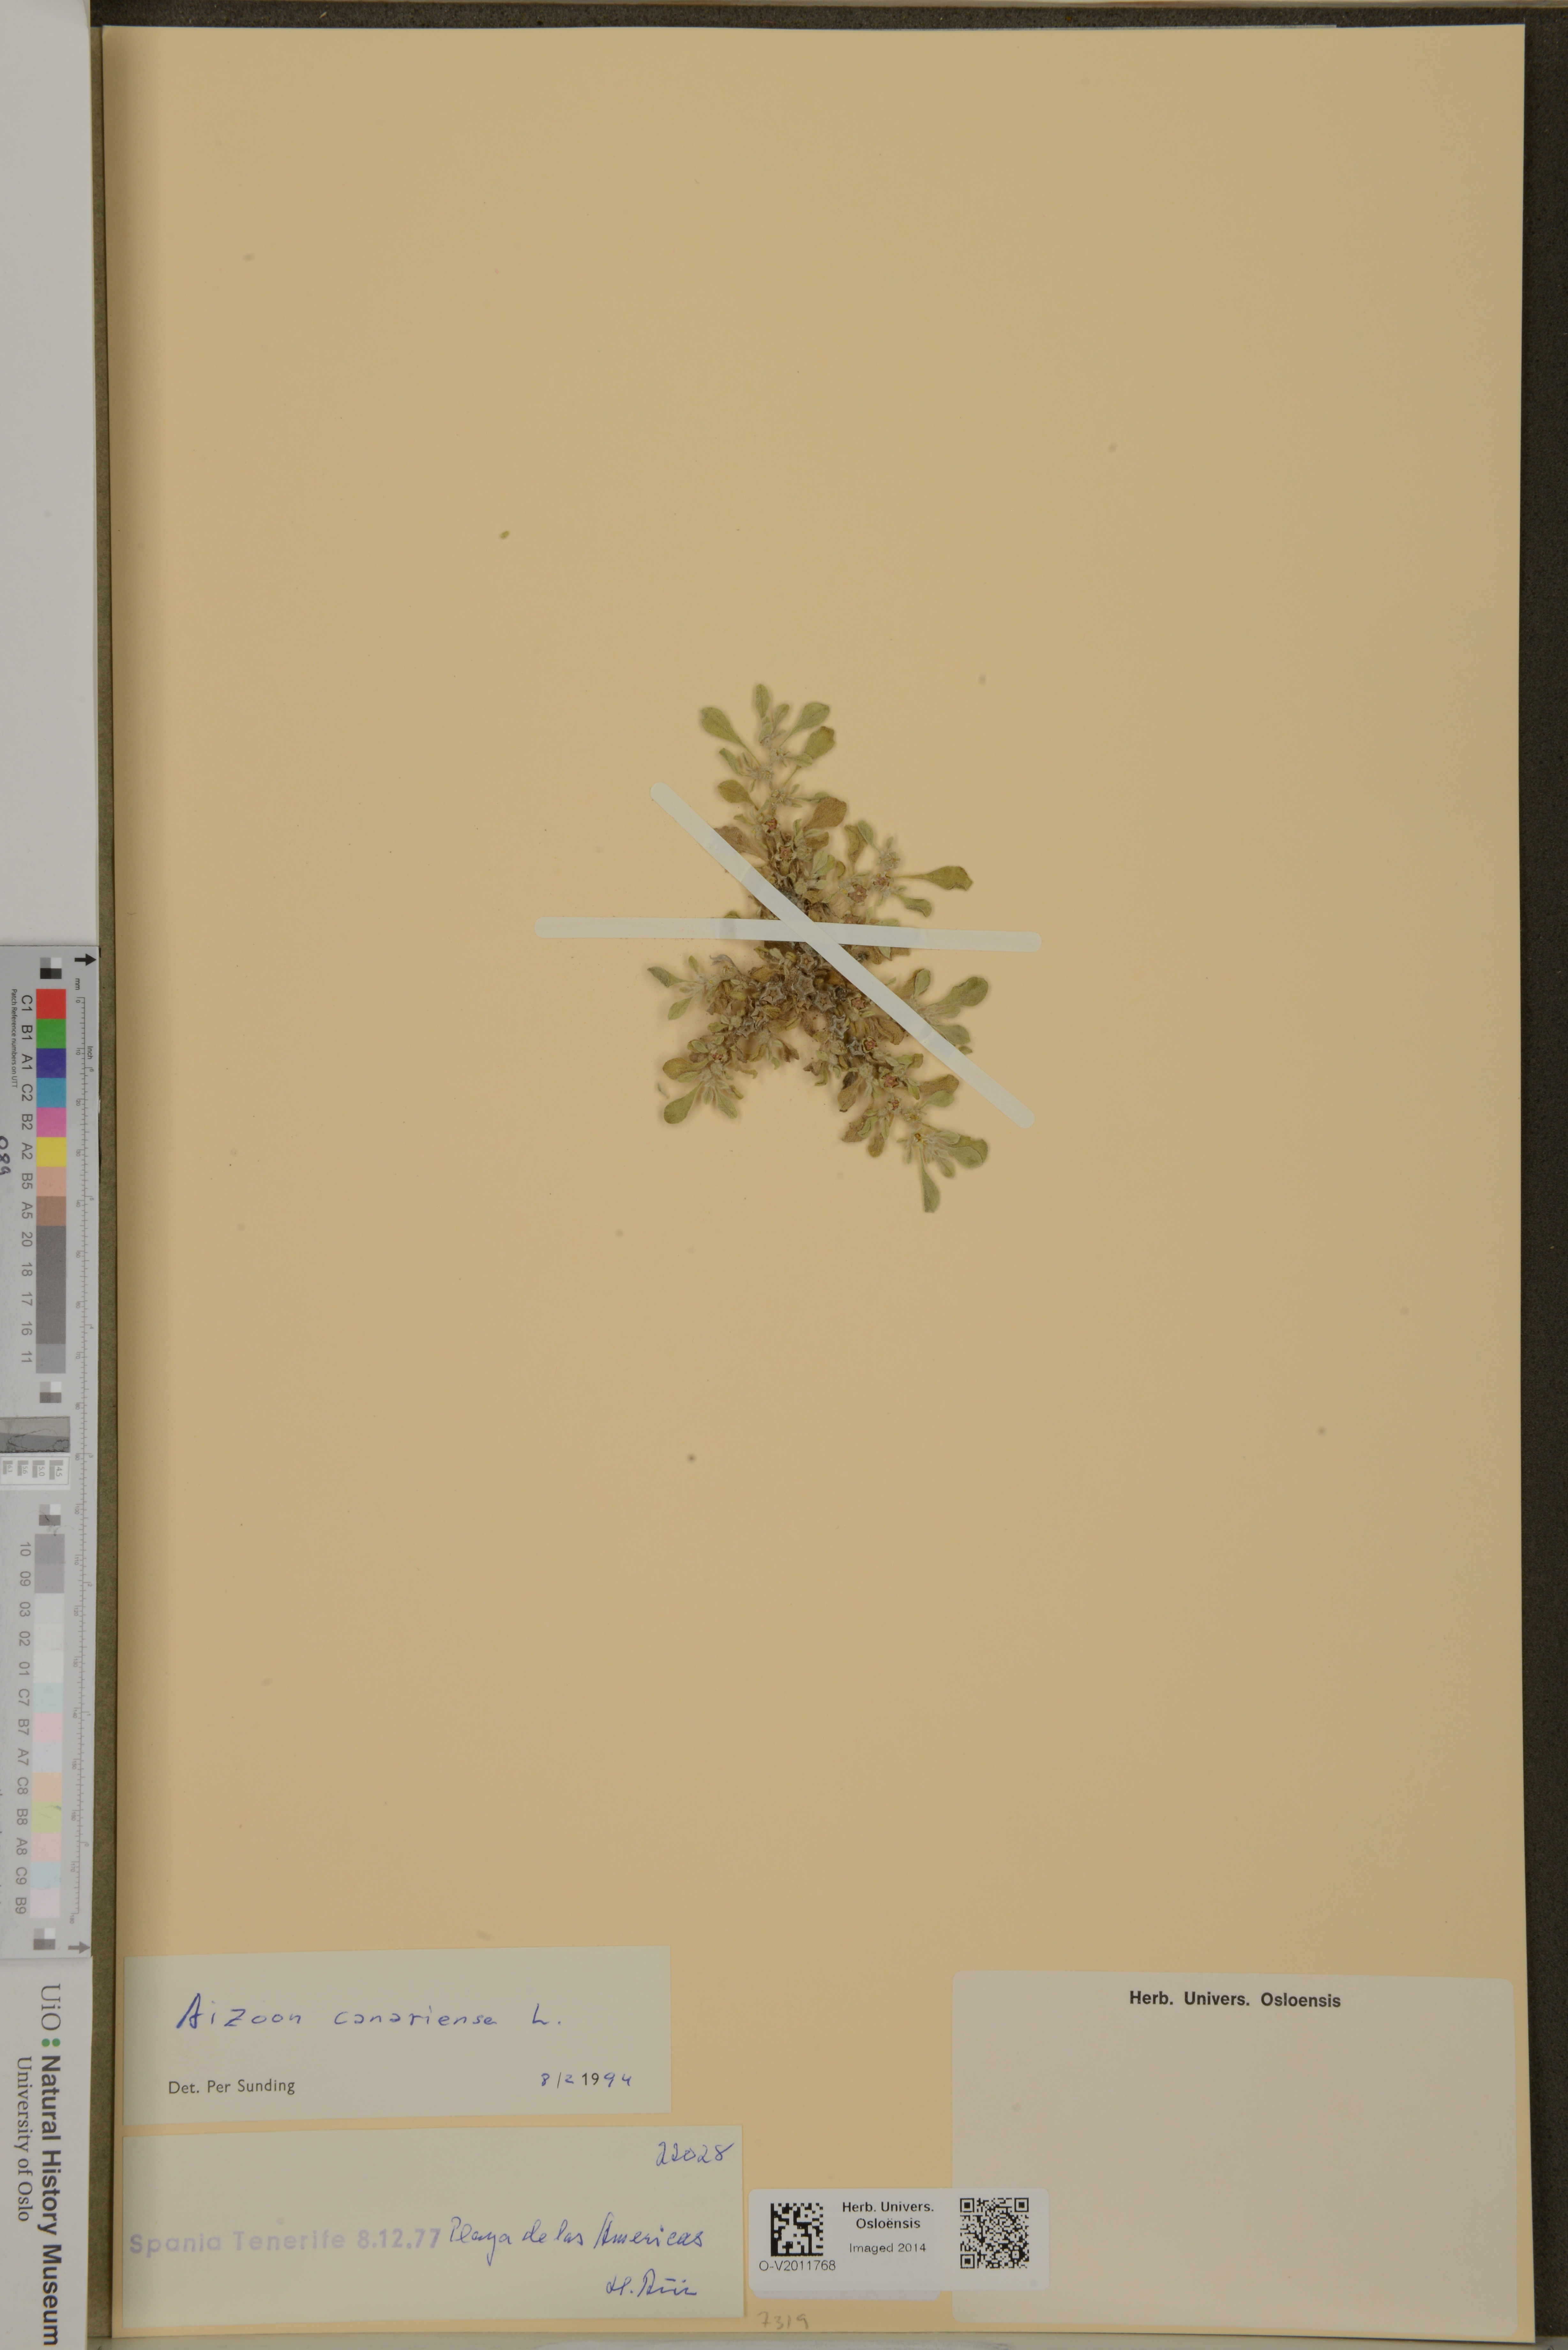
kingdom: Plantae
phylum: Tracheophyta
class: Magnoliopsida
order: Caryophyllales
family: Aizoaceae
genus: Aizoon
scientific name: Aizoon canariense
